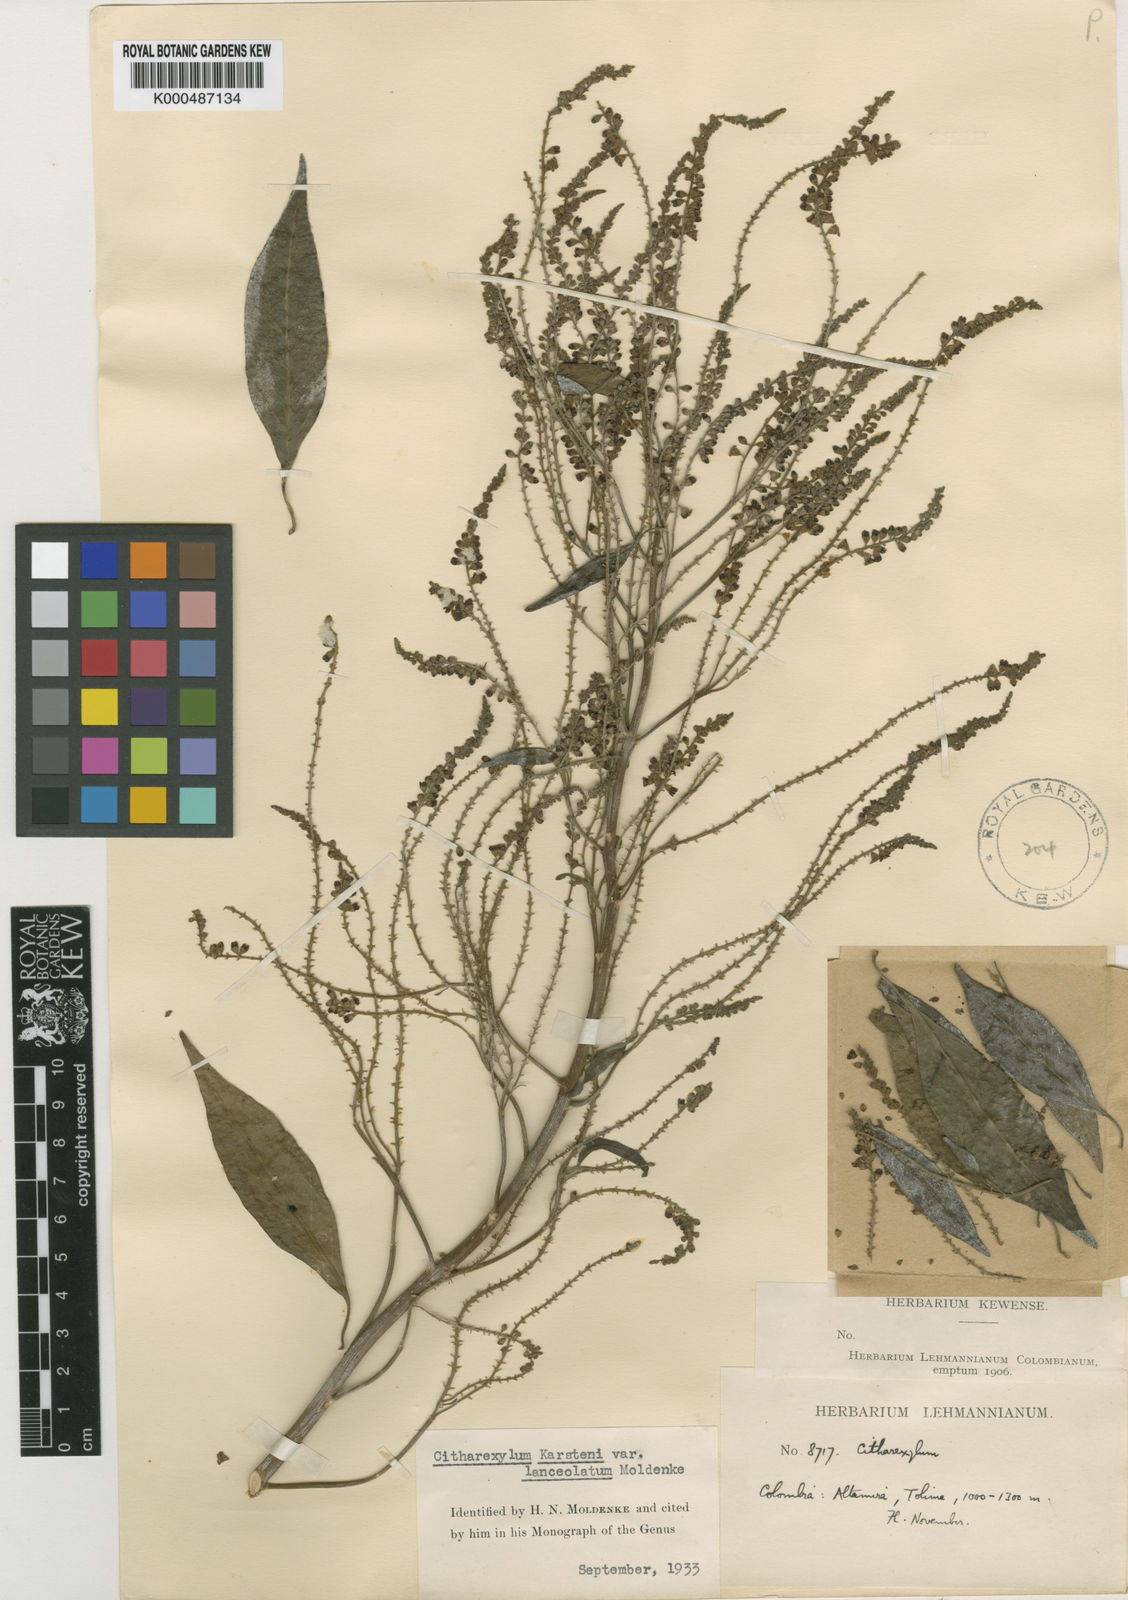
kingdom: Plantae
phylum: Tracheophyta
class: Magnoliopsida
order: Lamiales
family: Verbenaceae
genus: Citharexylum
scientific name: Citharexylum karstenii
